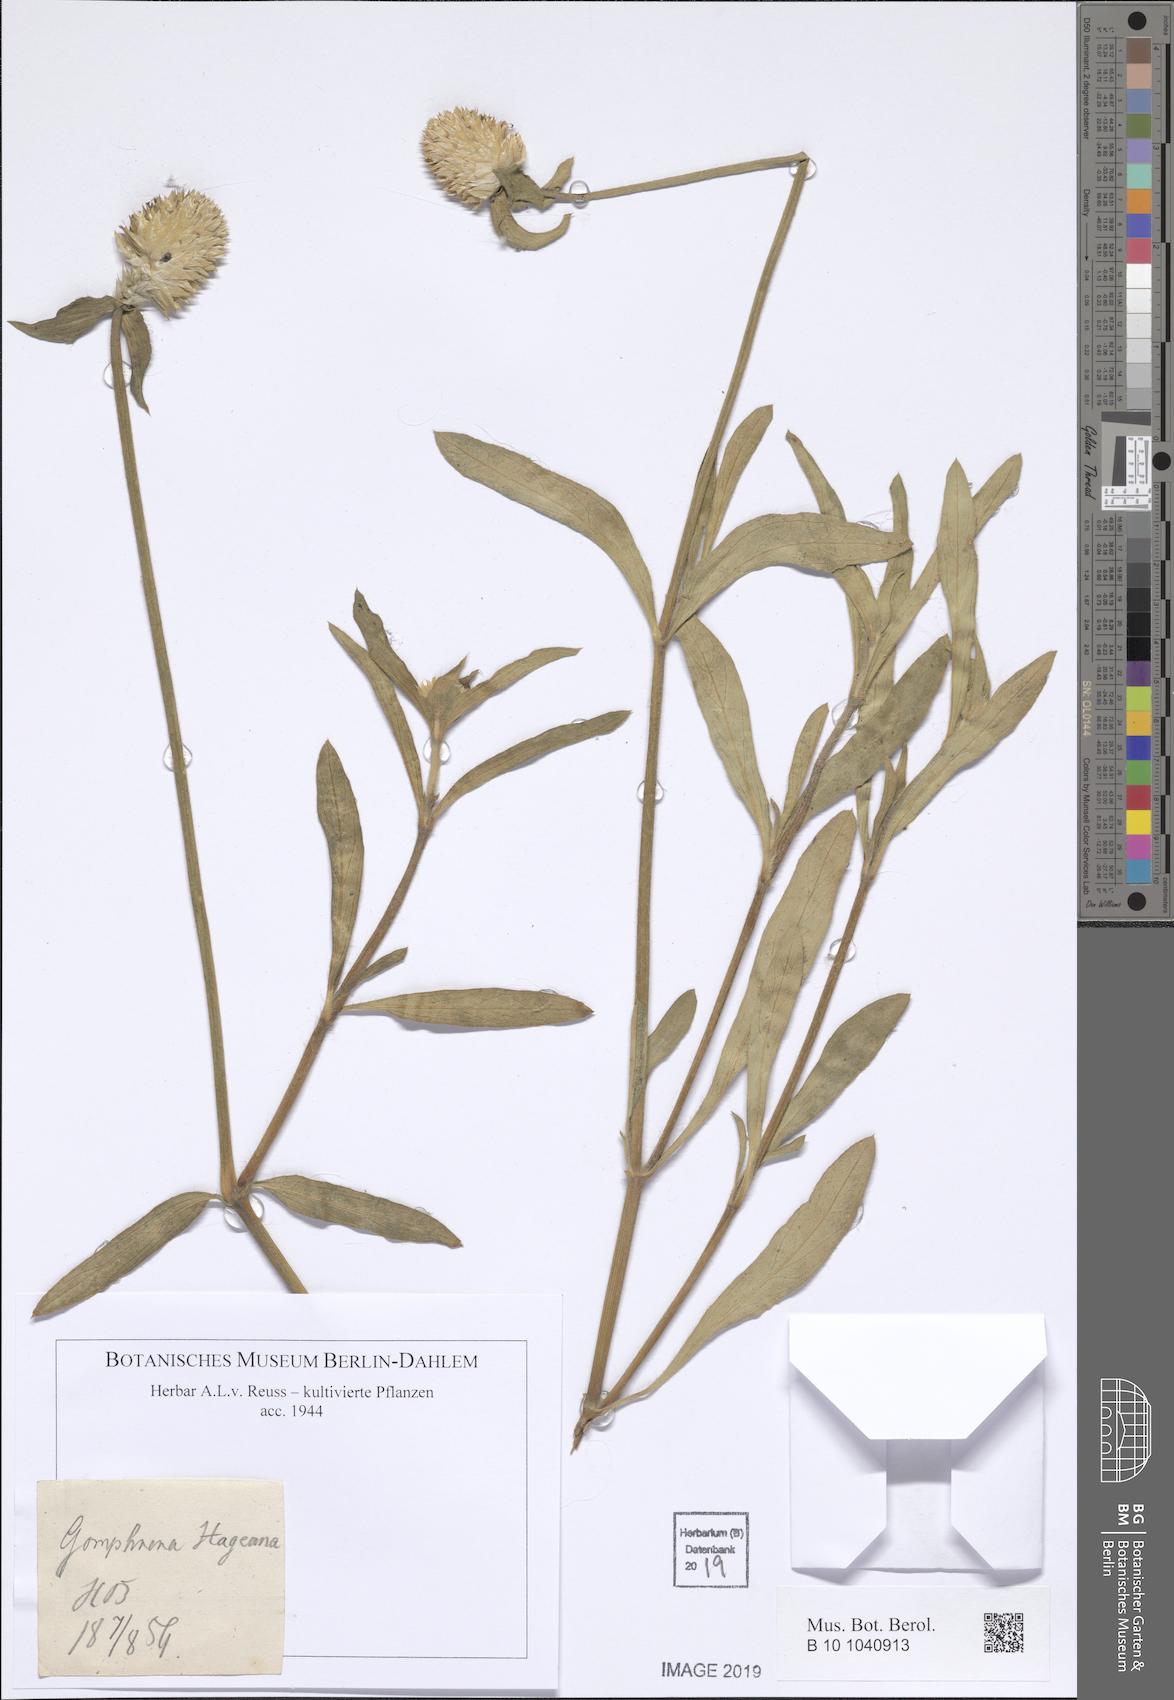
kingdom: Plantae
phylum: Tracheophyta
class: Magnoliopsida
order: Caryophyllales
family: Amaranthaceae
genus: Gomphrena
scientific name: Gomphrena haageana
